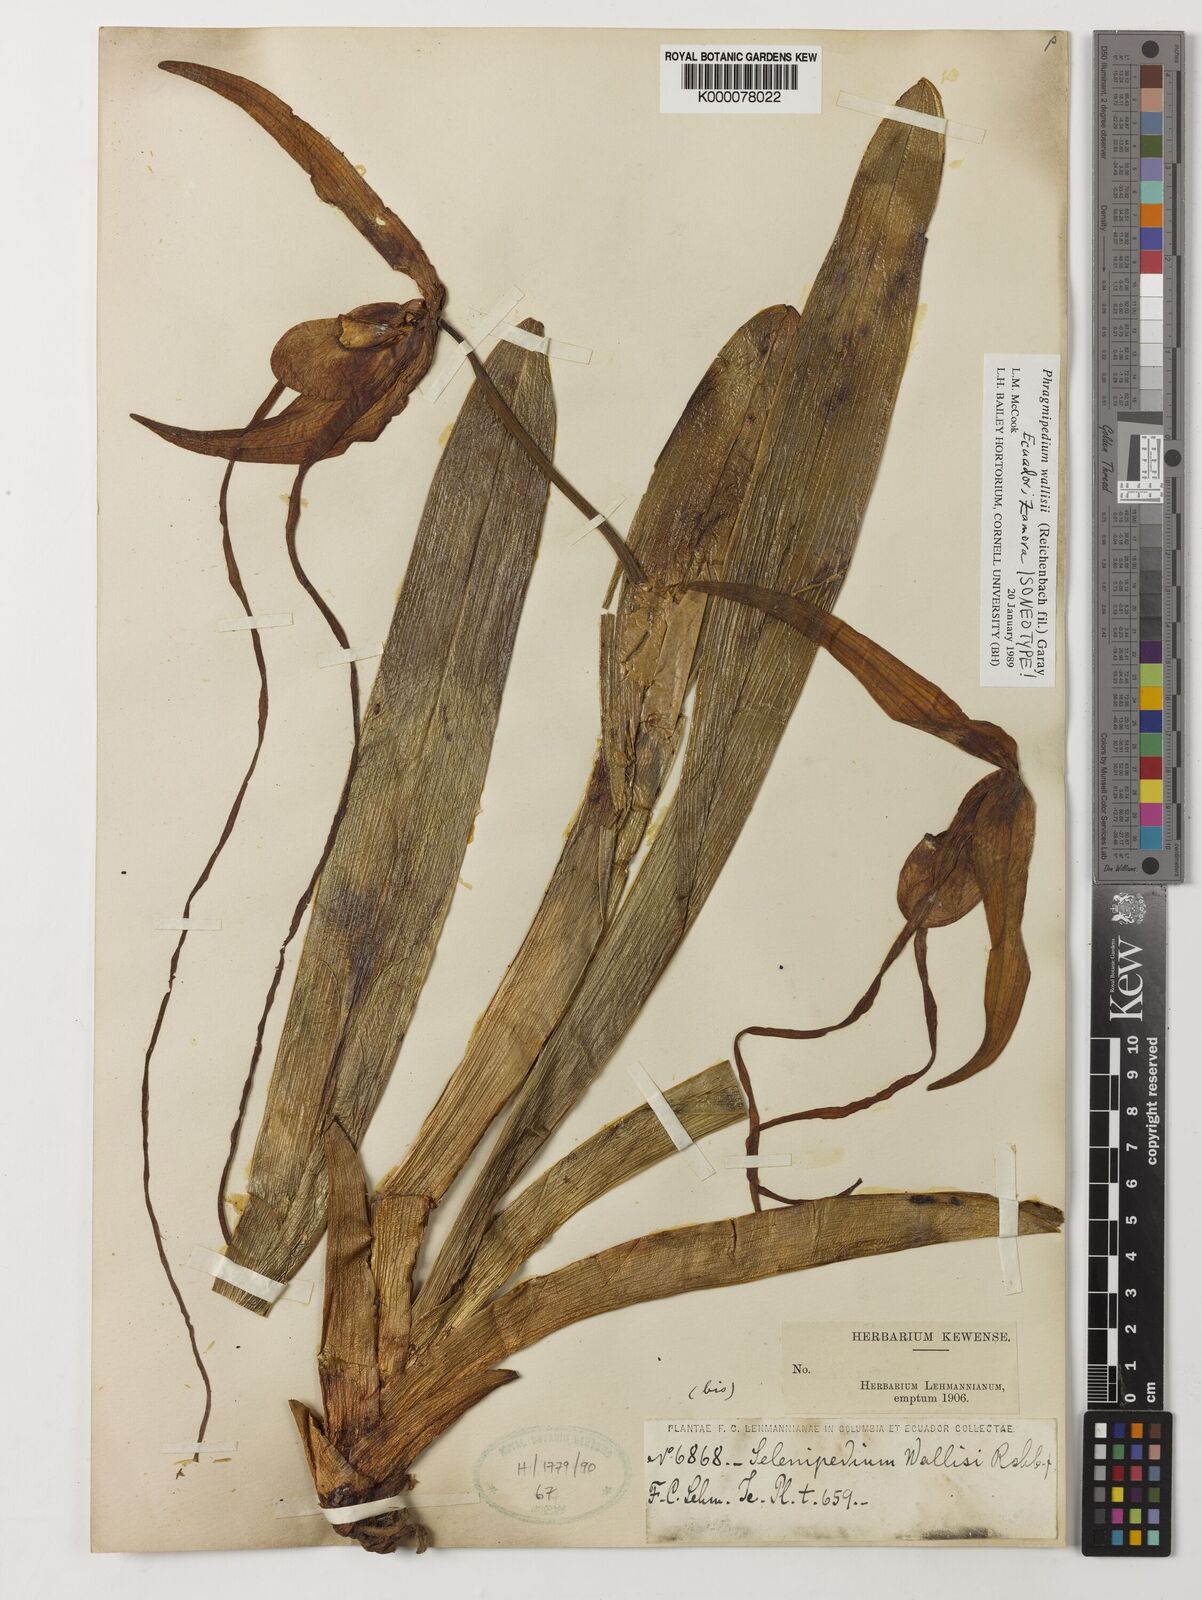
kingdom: Plantae
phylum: Tracheophyta
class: Liliopsida
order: Asparagales
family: Orchidaceae
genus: Phragmipedium
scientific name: Phragmipedium warszewiczianum
